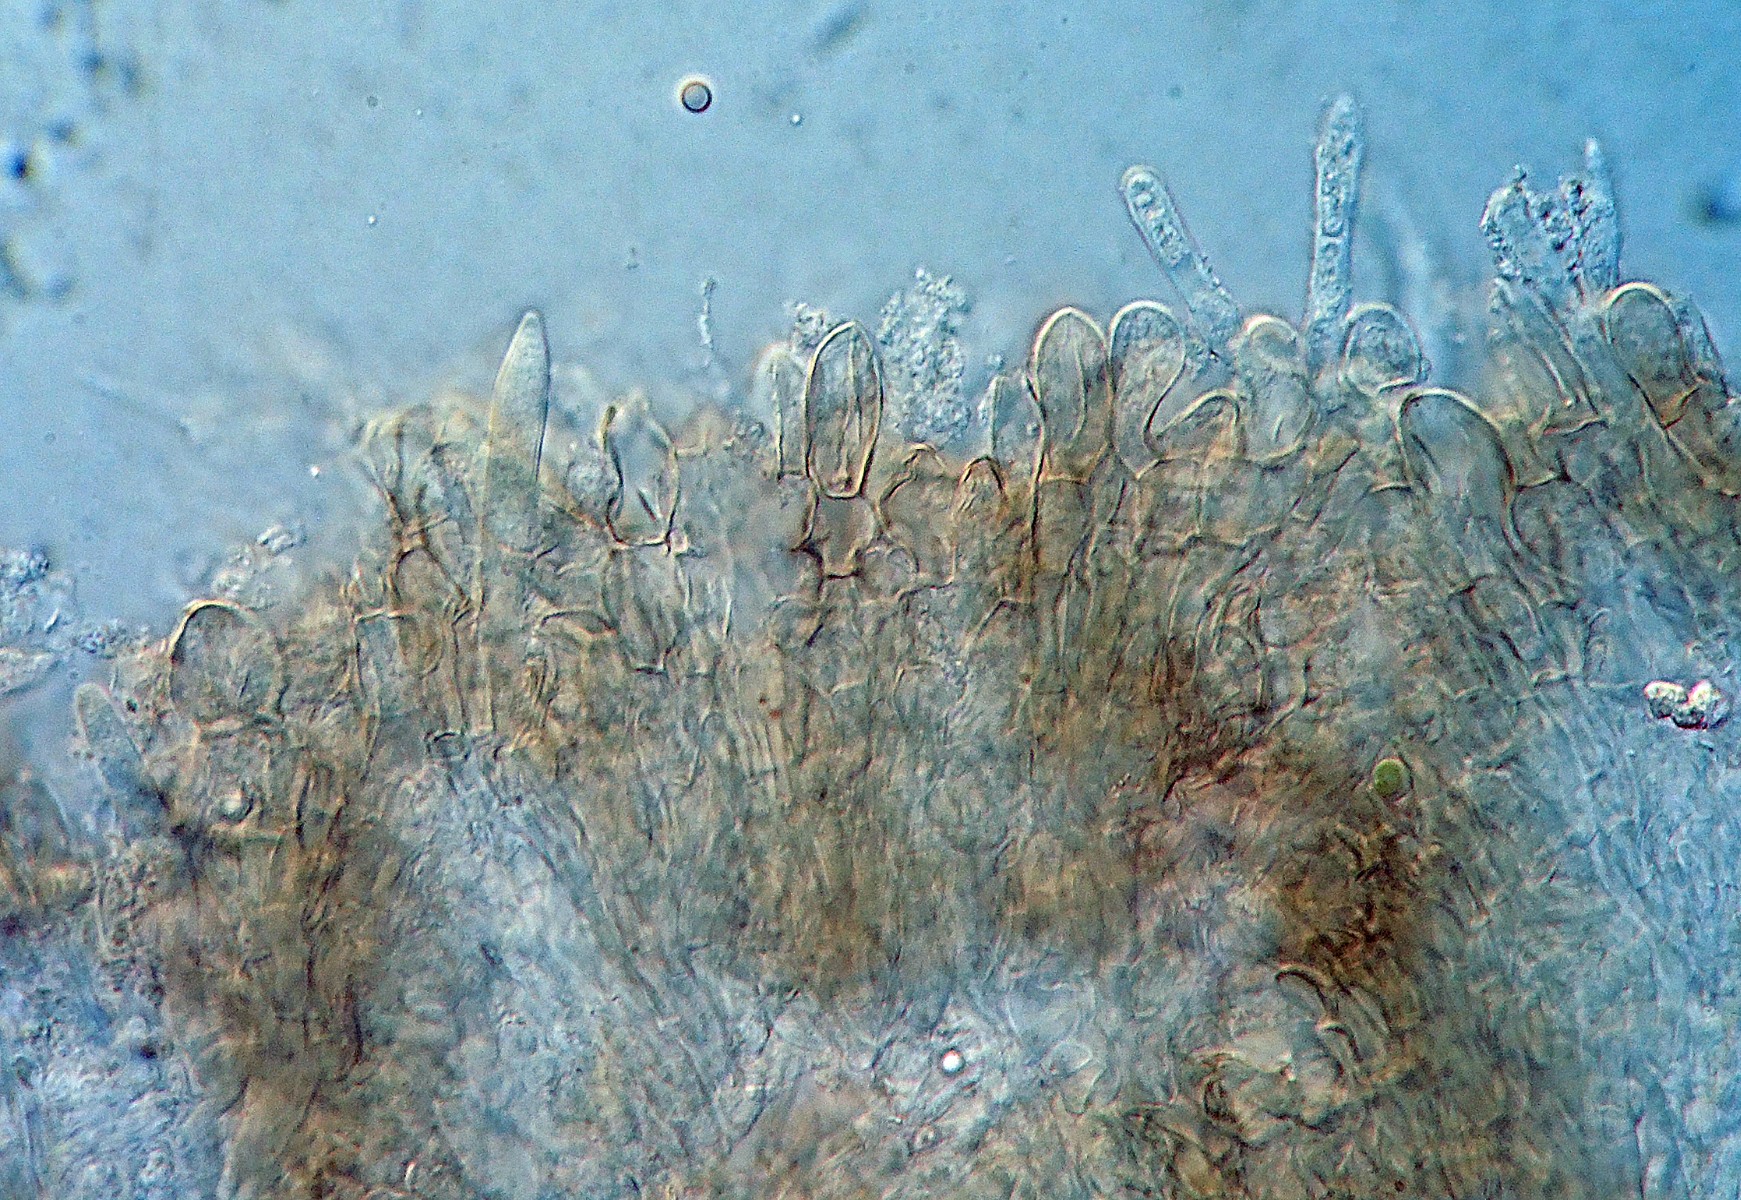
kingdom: Fungi
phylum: Ascomycota
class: Leotiomycetes
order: Helotiales
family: Mollisiaceae
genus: Mollisia
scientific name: Mollisia
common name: gråskive
